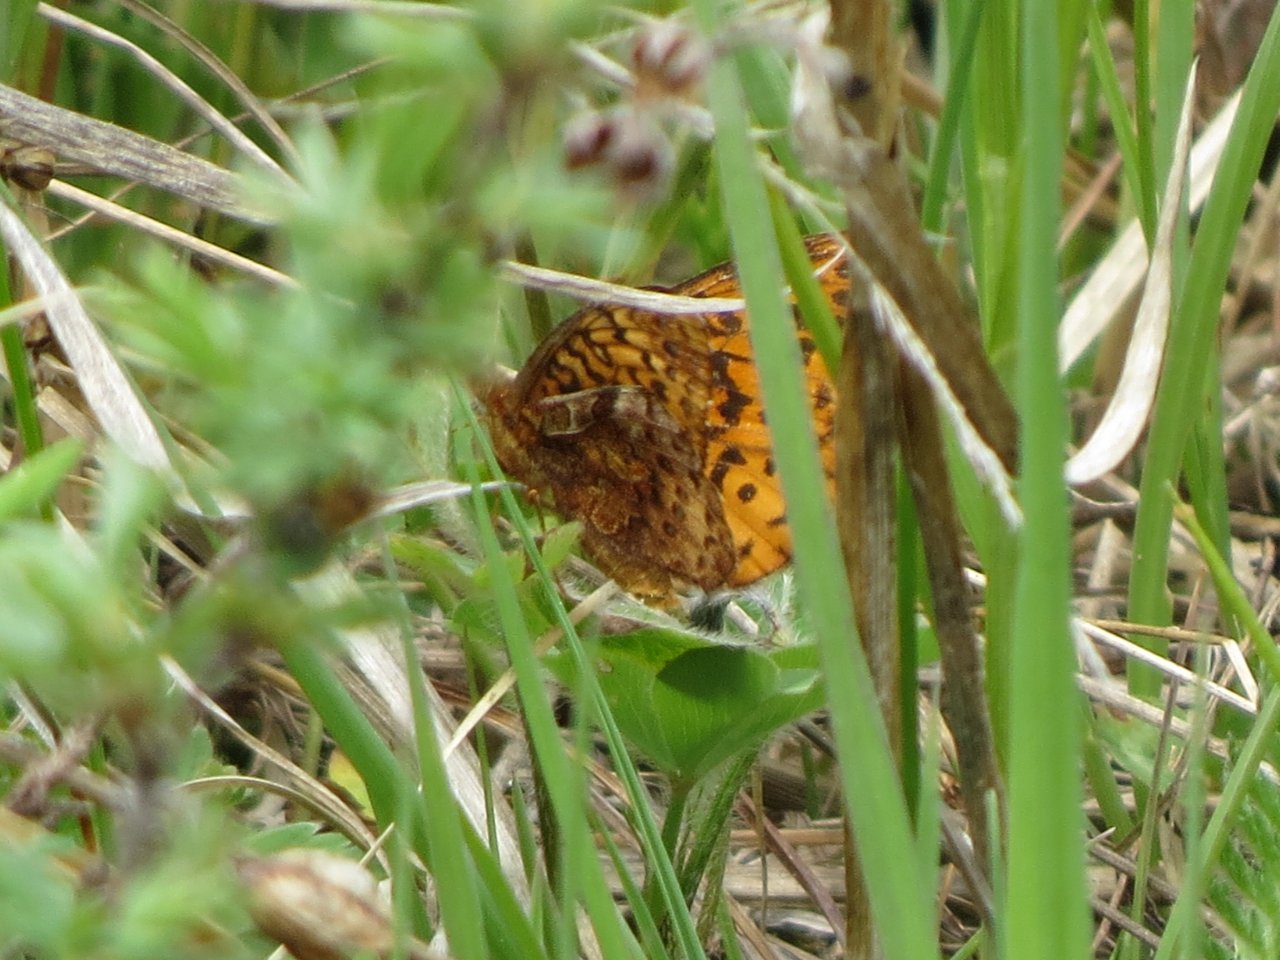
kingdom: Animalia
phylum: Arthropoda
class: Insecta
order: Lepidoptera
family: Nymphalidae
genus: Clossiana
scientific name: Clossiana toddi
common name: Meadow Fritillary
